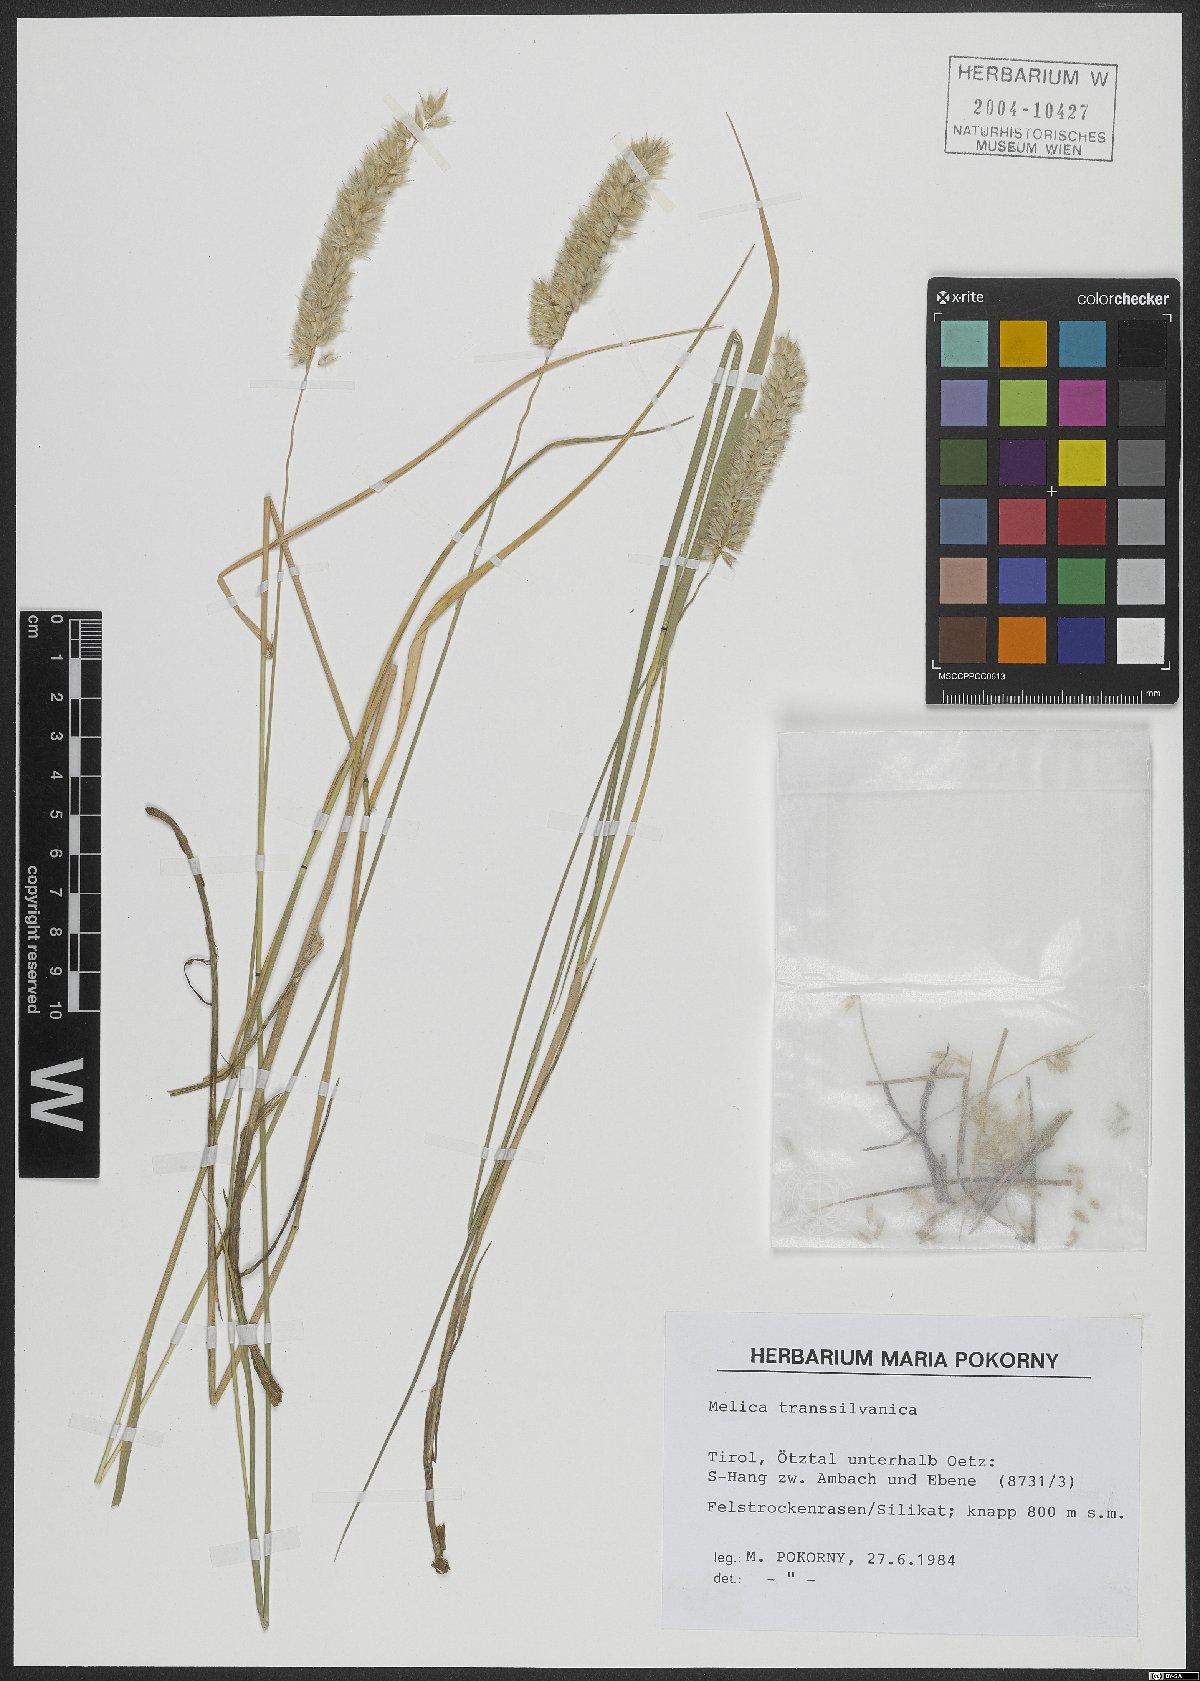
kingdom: Plantae
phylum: Tracheophyta
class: Liliopsida
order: Poales
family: Poaceae
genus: Melica
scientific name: Melica transsilvanica
